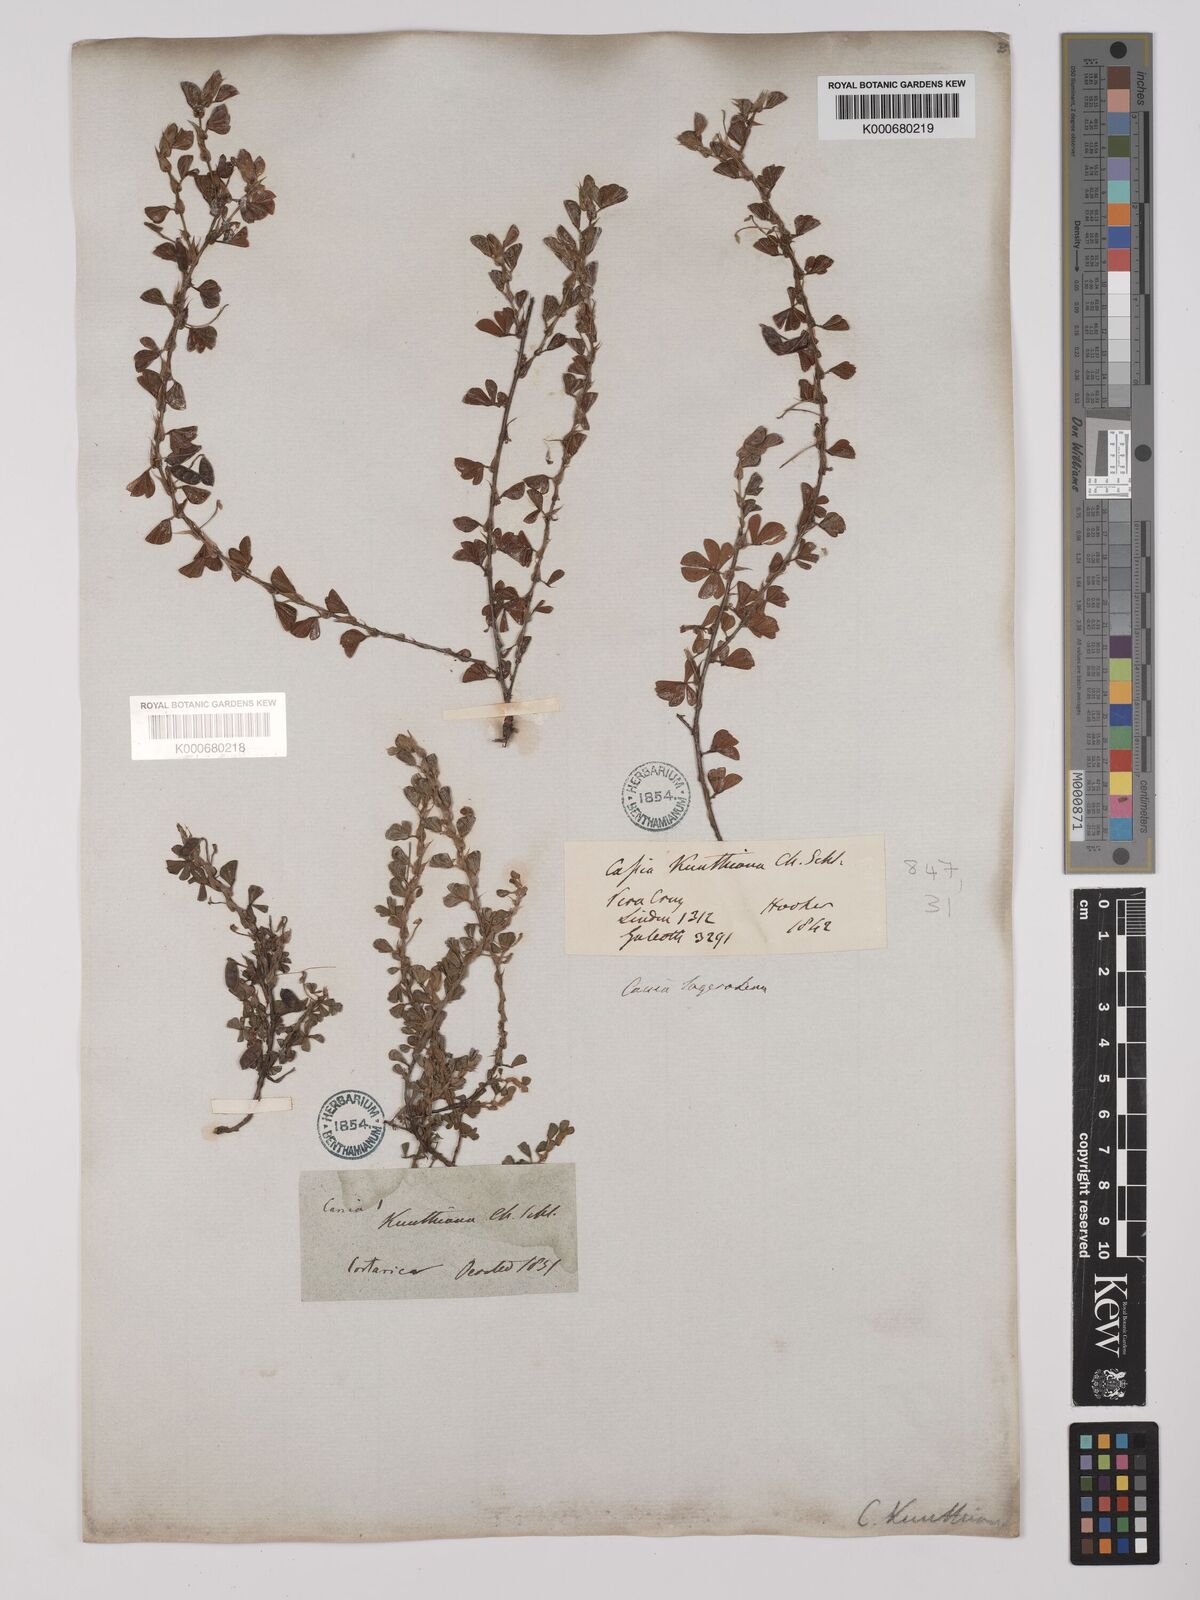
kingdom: Plantae
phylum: Tracheophyta
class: Magnoliopsida
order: Fabales
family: Fabaceae
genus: Chamaecrista
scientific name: Chamaecrista kunthiana
